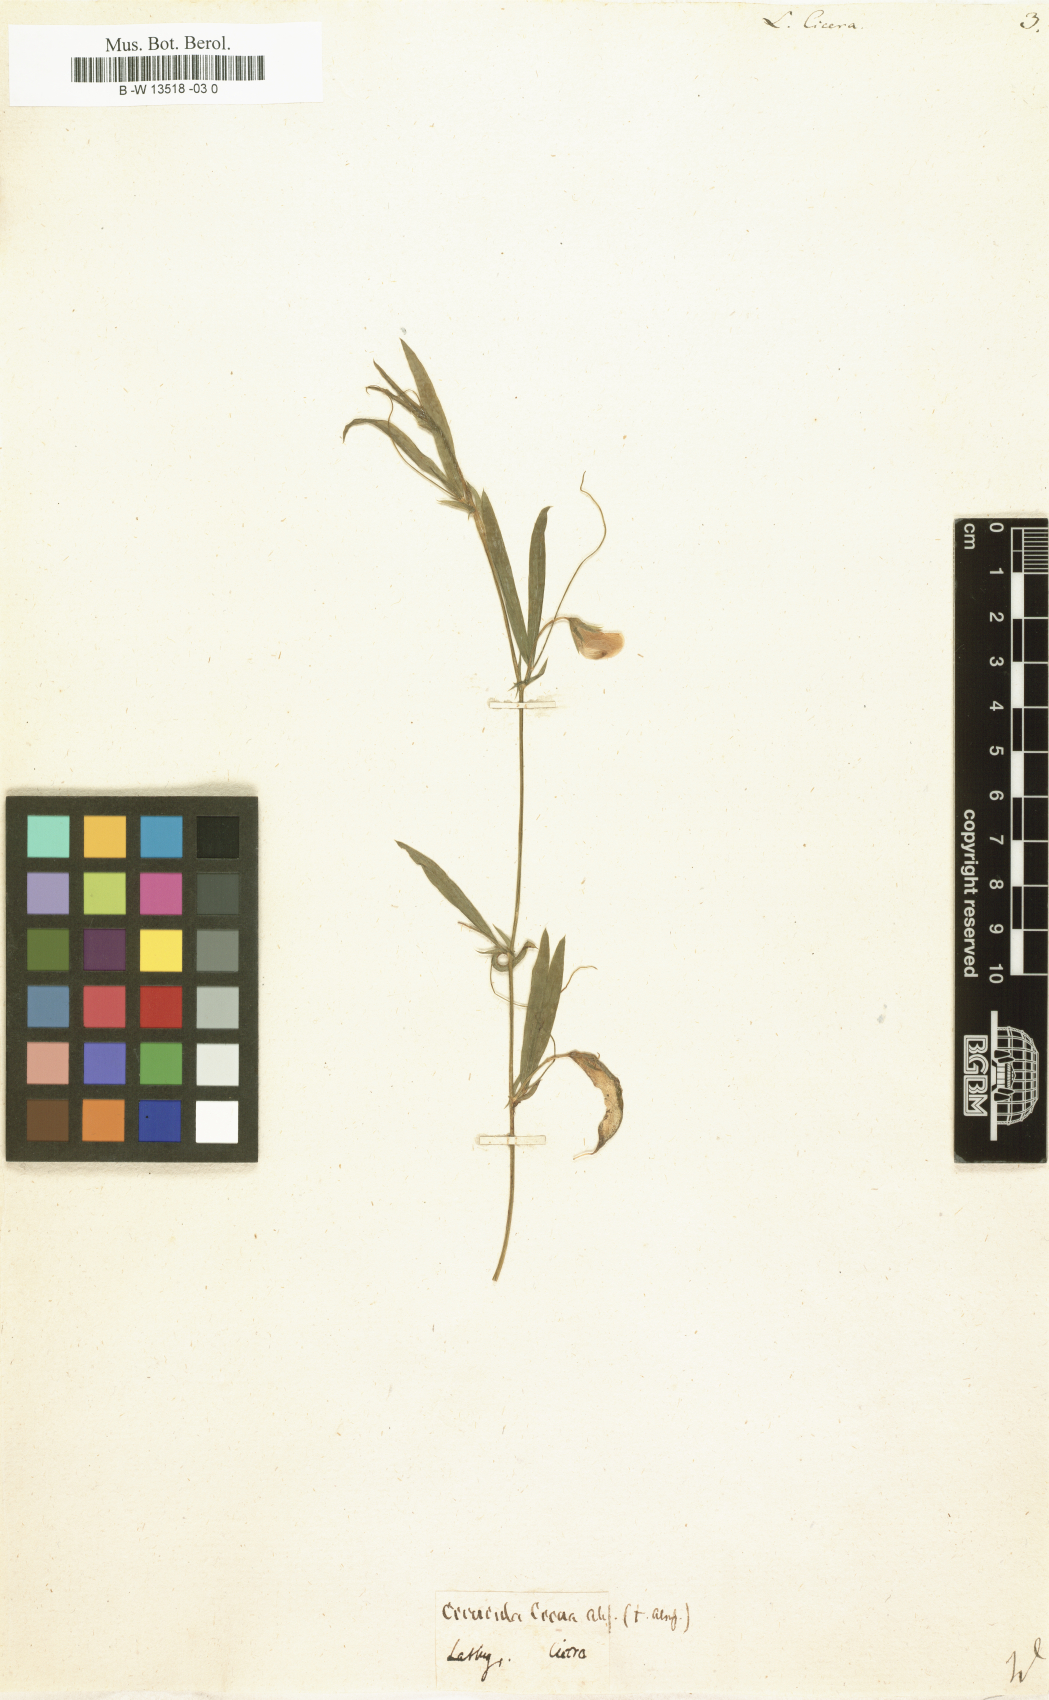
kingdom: Plantae
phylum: Tracheophyta
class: Magnoliopsida
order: Fabales
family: Fabaceae
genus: Lathyrus
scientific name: Lathyrus amphicarpos
